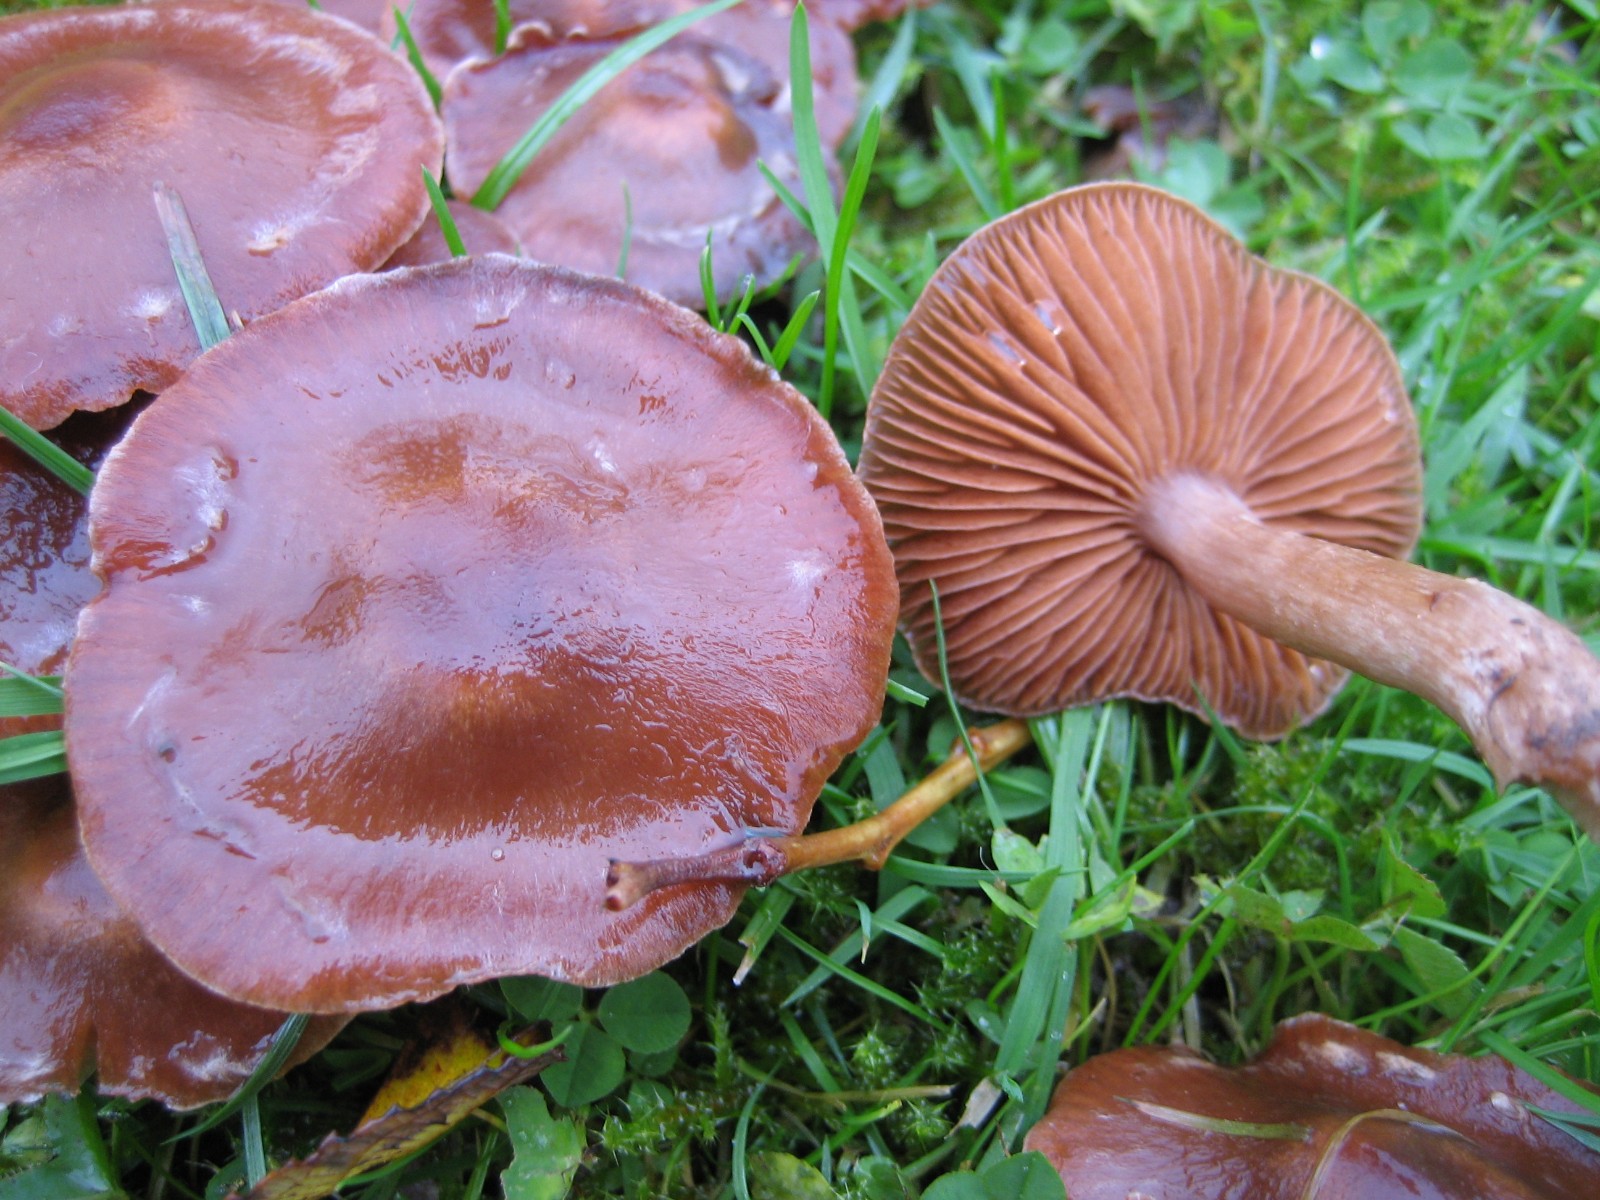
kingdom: Fungi
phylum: Basidiomycota
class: Agaricomycetes
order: Agaricales
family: Cortinariaceae
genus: Cortinarius
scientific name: Cortinarius saturninus
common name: brunviolet slørhat
